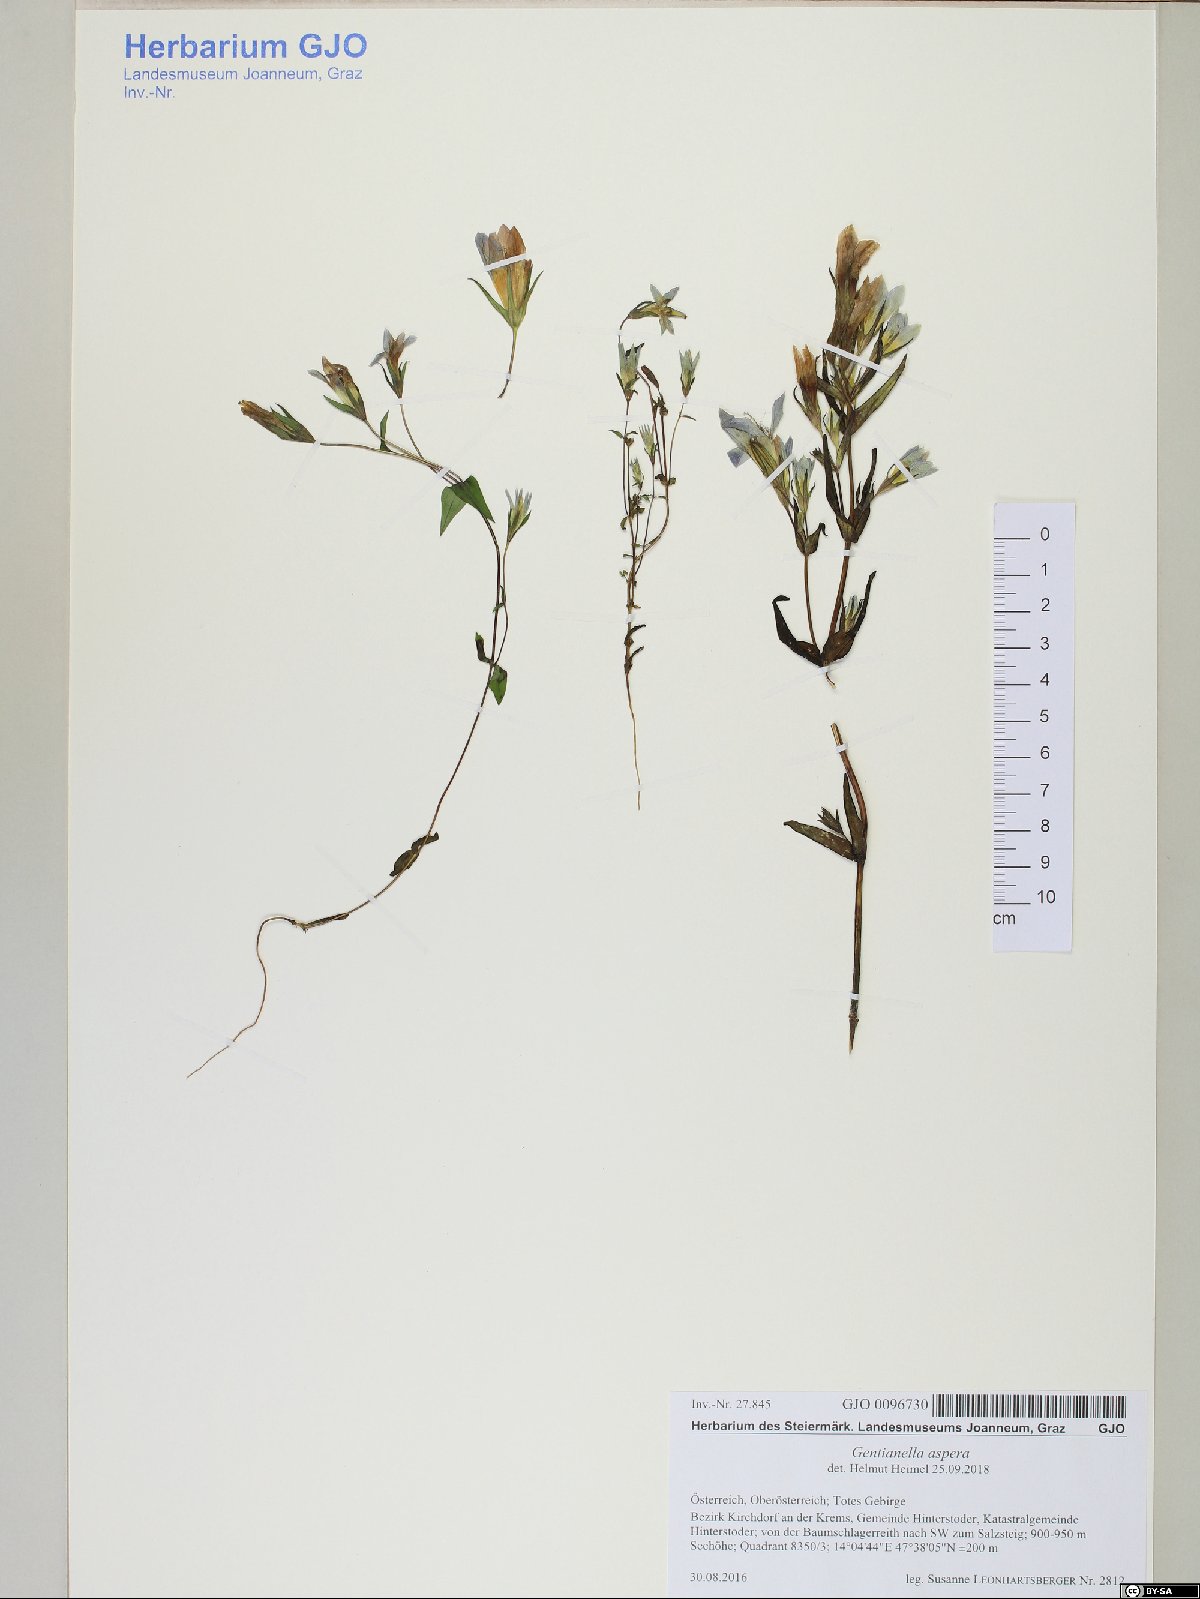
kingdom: Plantae
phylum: Tracheophyta
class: Magnoliopsida
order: Gentianales
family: Gentianaceae
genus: Gentianella
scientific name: Gentianella obtusifolia
